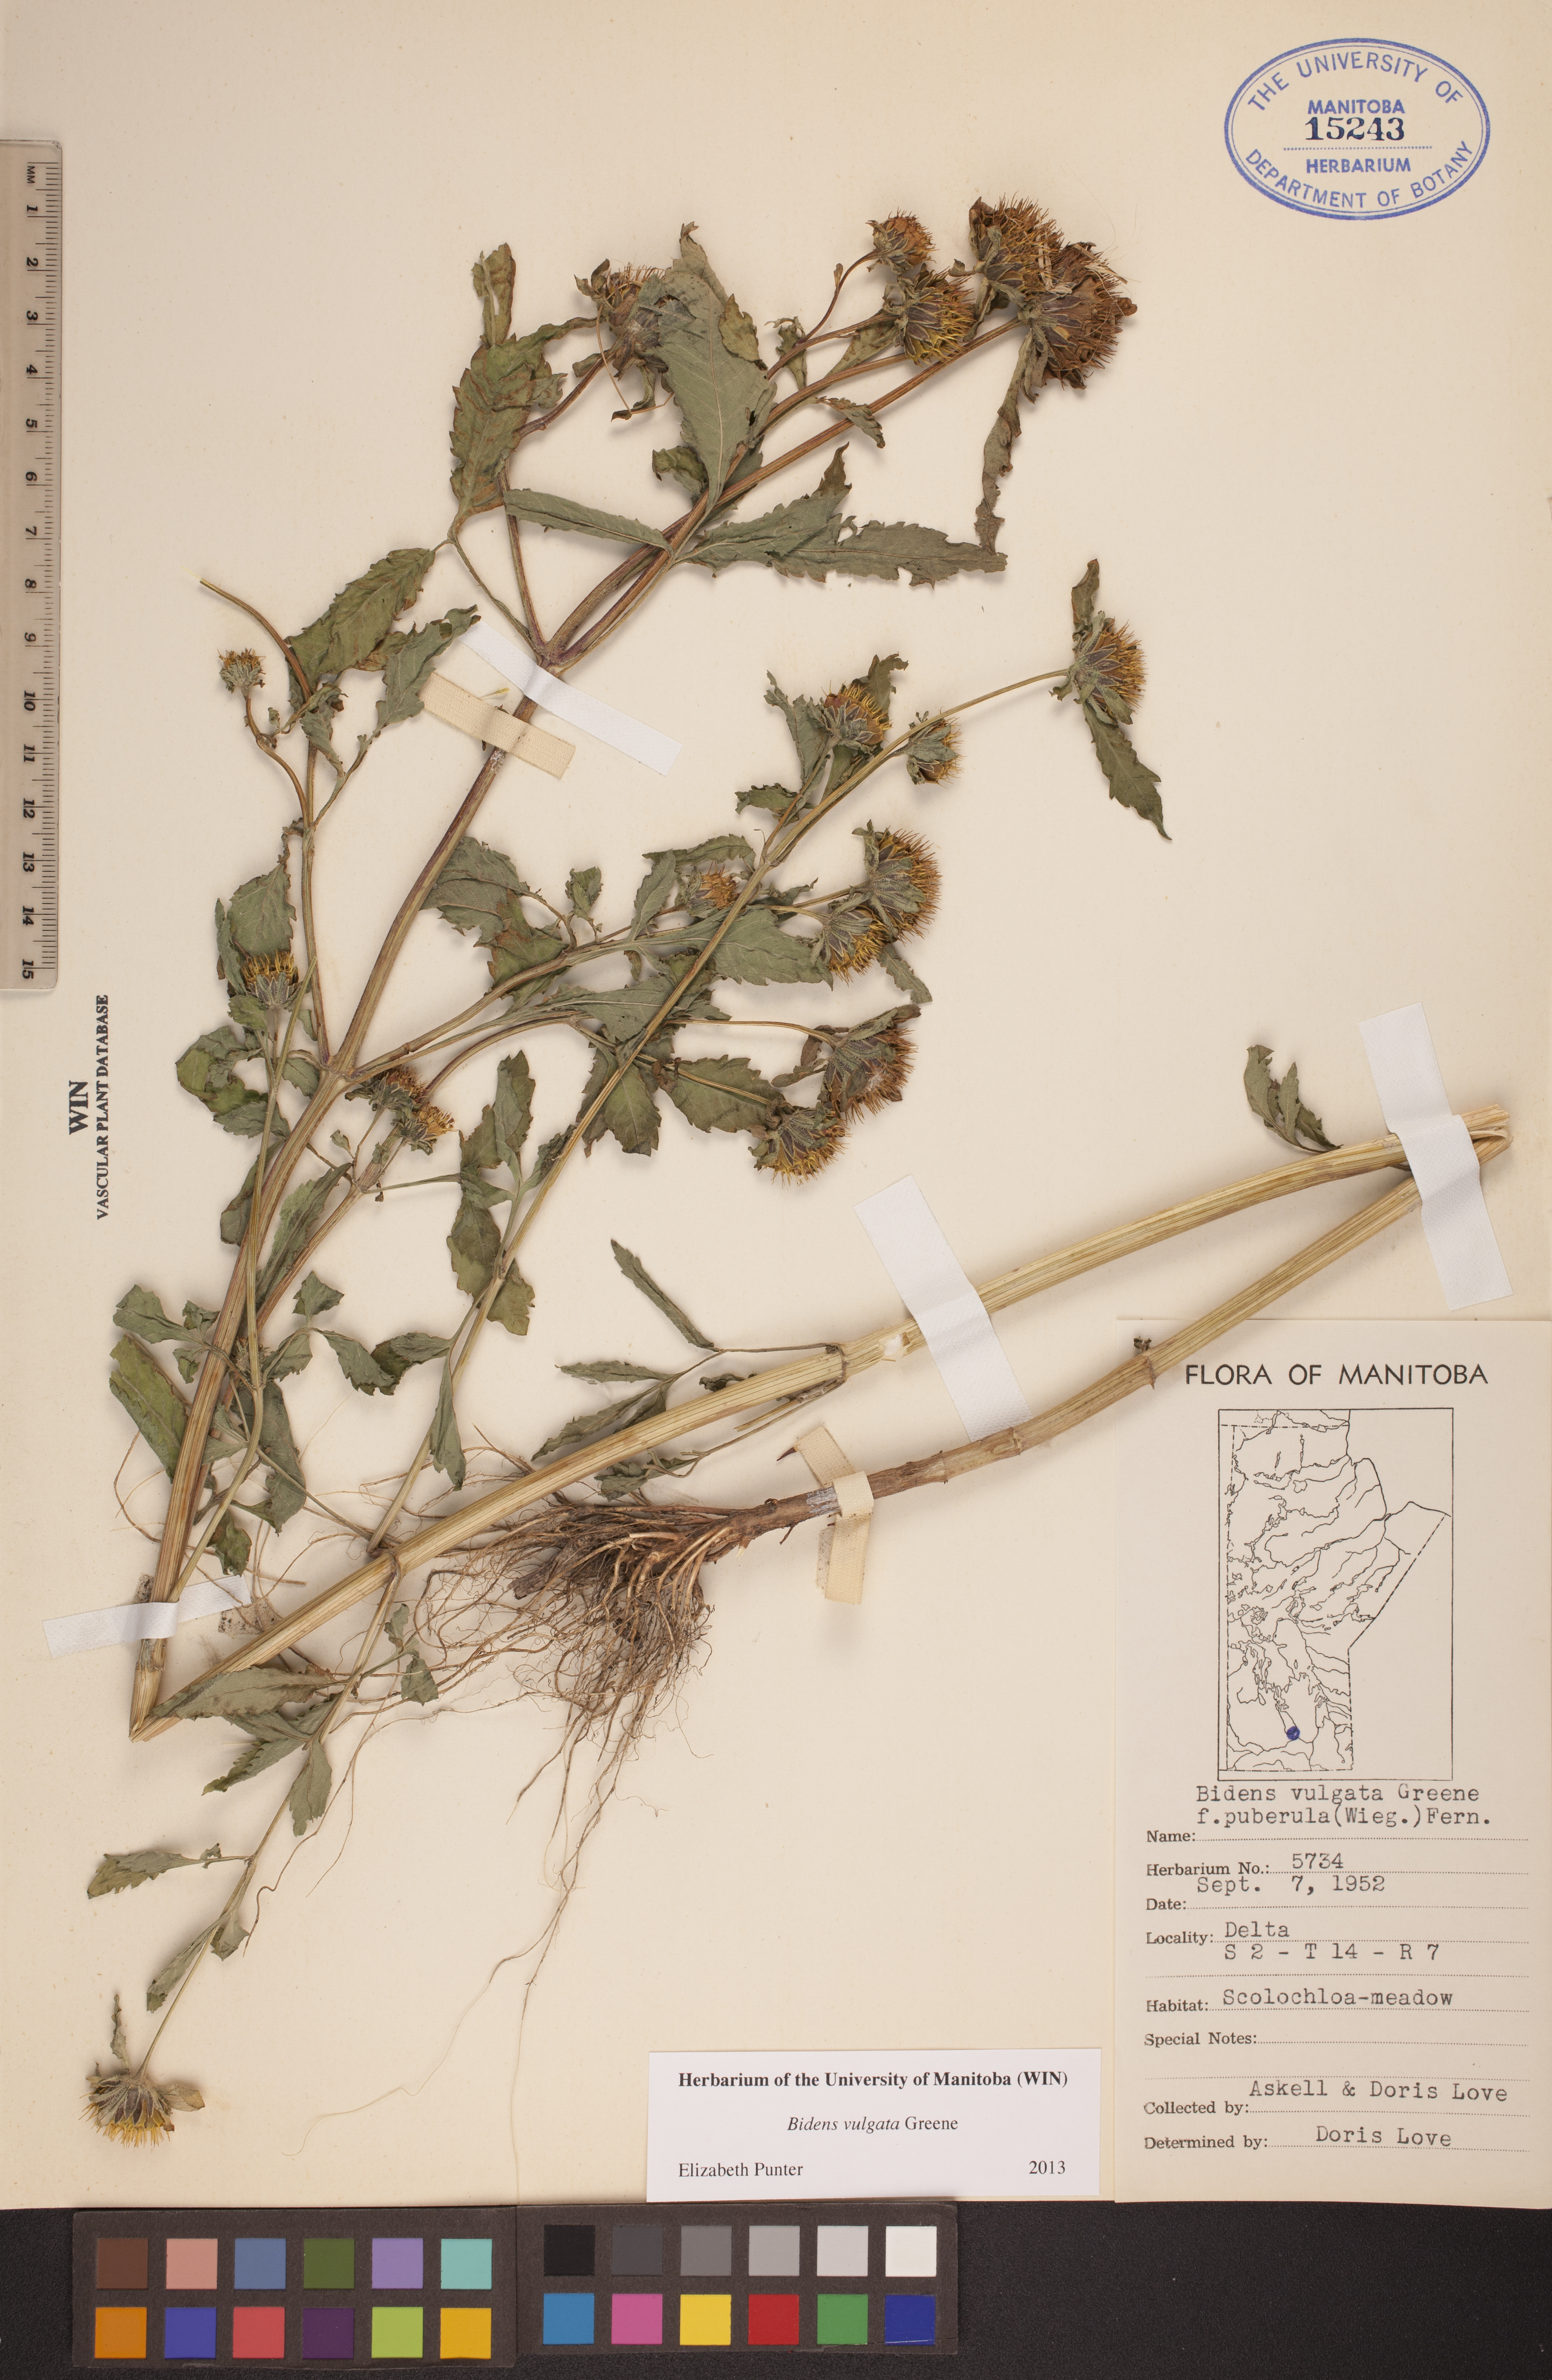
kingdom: Plantae
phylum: Tracheophyta
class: Magnoliopsida
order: Asterales
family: Asteraceae
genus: Bidens
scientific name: Bidens vulgata
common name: Tall beggarticks
